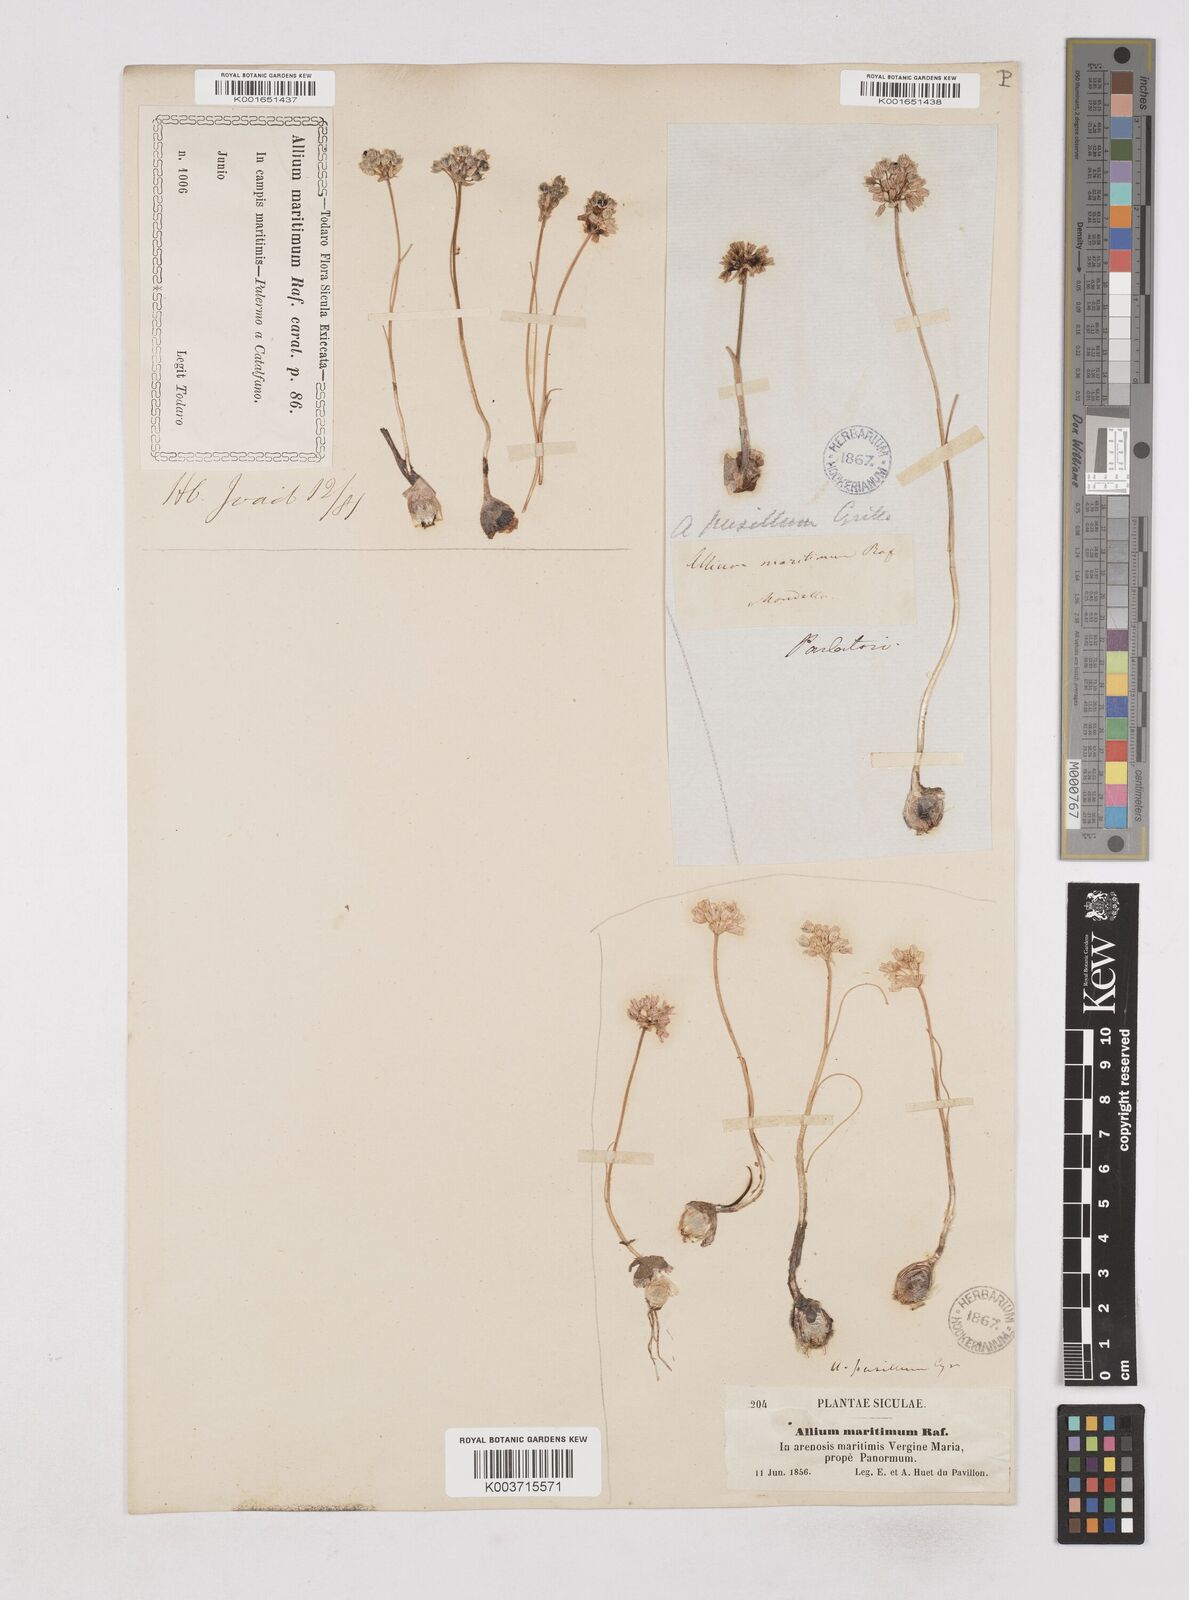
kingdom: Plantae
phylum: Tracheophyta
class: Liliopsida
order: Asparagales
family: Amaryllidaceae
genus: Allium
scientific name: Allium
